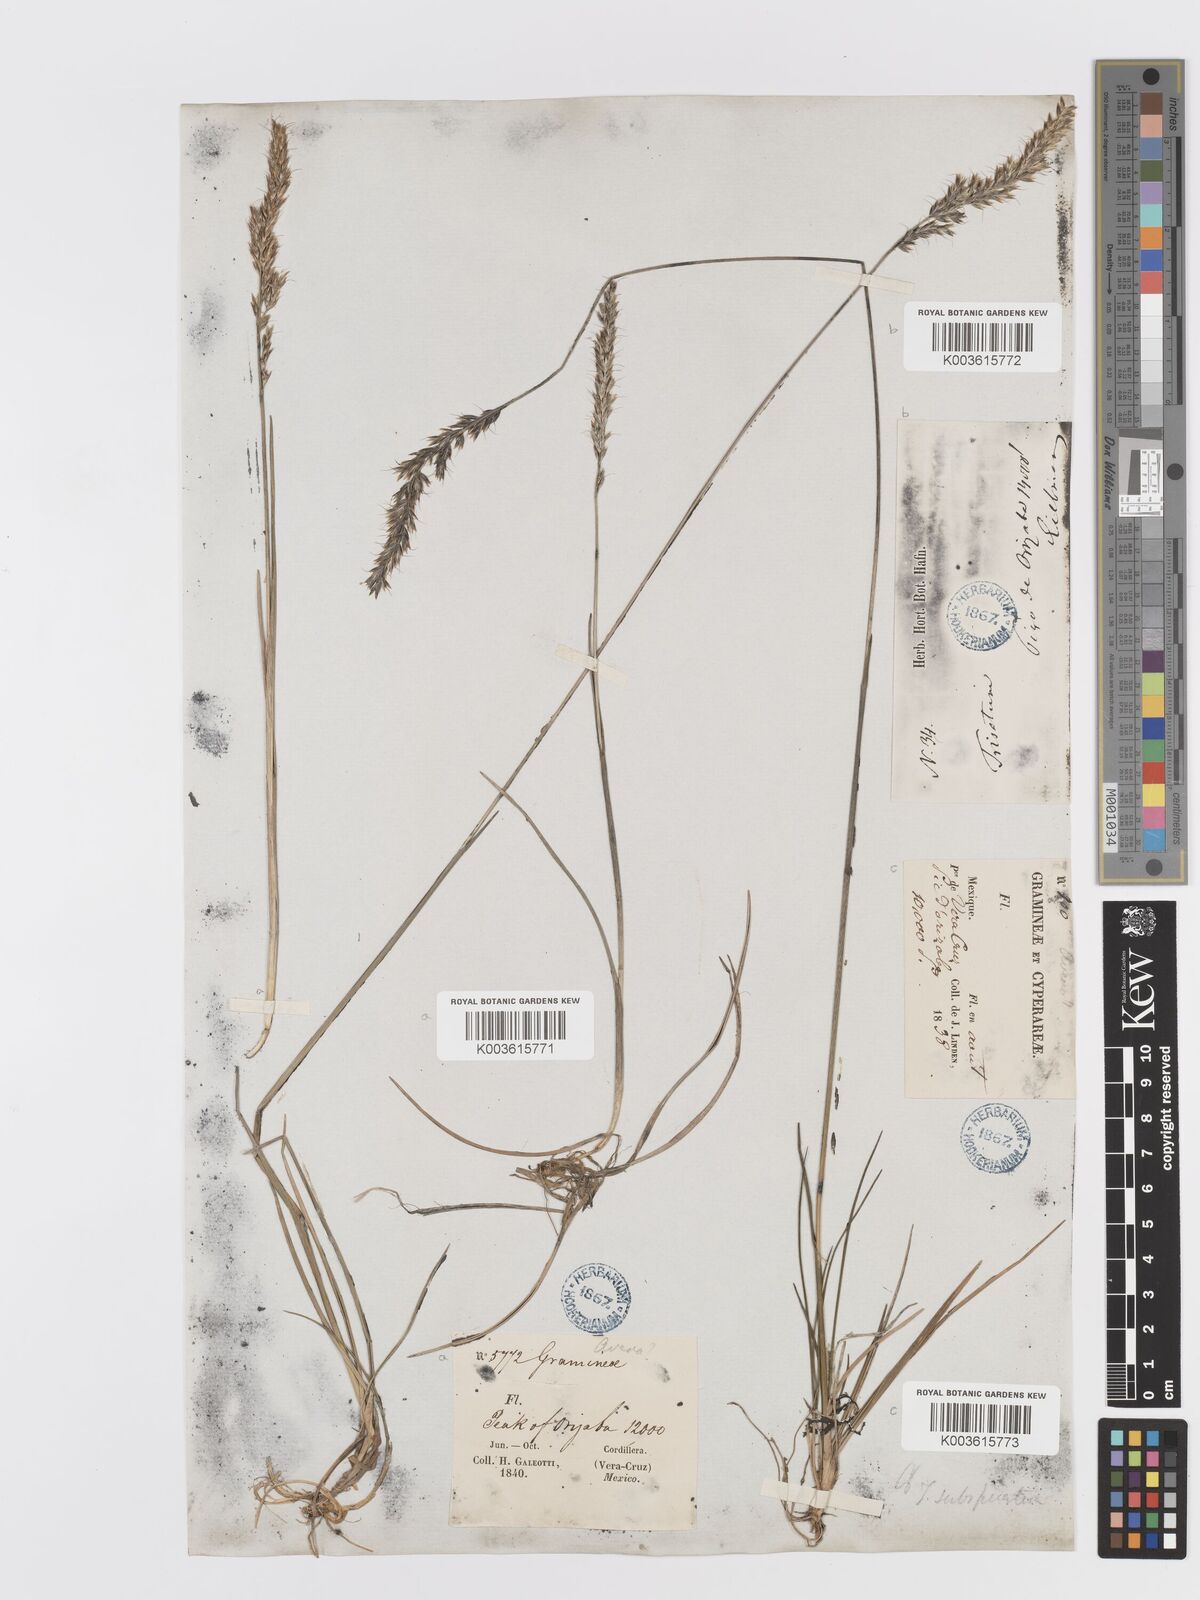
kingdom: Plantae
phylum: Tracheophyta
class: Liliopsida
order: Poales
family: Poaceae
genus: Koeleria
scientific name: Koeleria spicata
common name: Mountain trisetum
